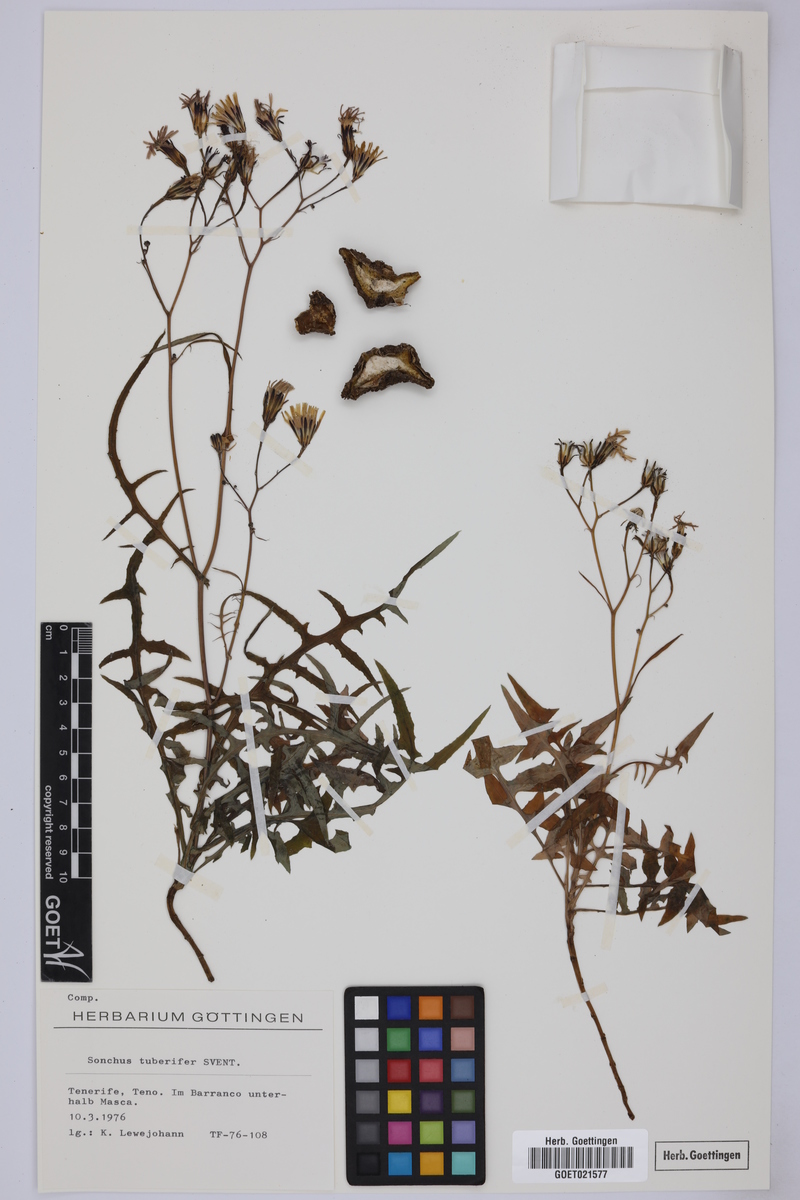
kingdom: Plantae
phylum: Tracheophyta
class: Magnoliopsida
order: Asterales
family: Asteraceae
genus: Sonchus
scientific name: Sonchus tuberifer
